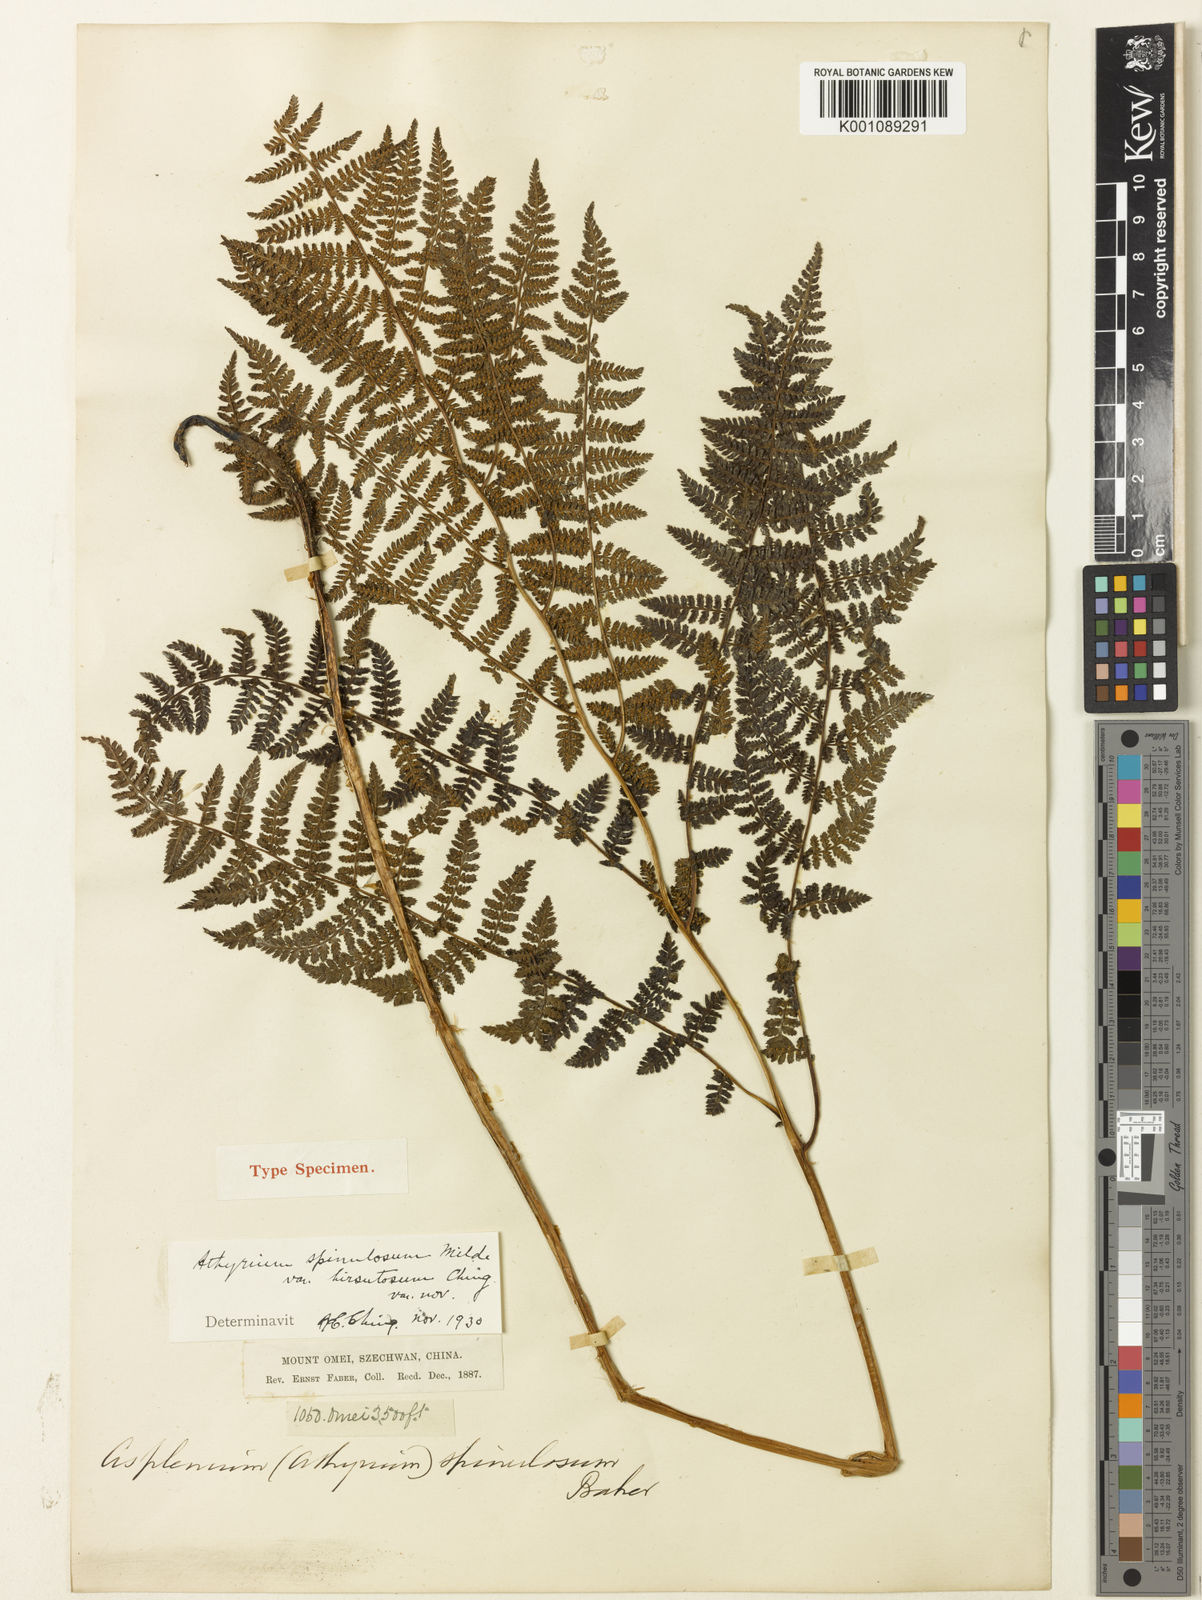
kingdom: Plantae
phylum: Tracheophyta
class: Polypodiopsida
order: Polypodiales
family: Athyriaceae
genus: Athyrium
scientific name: Athyrium spinulosum
